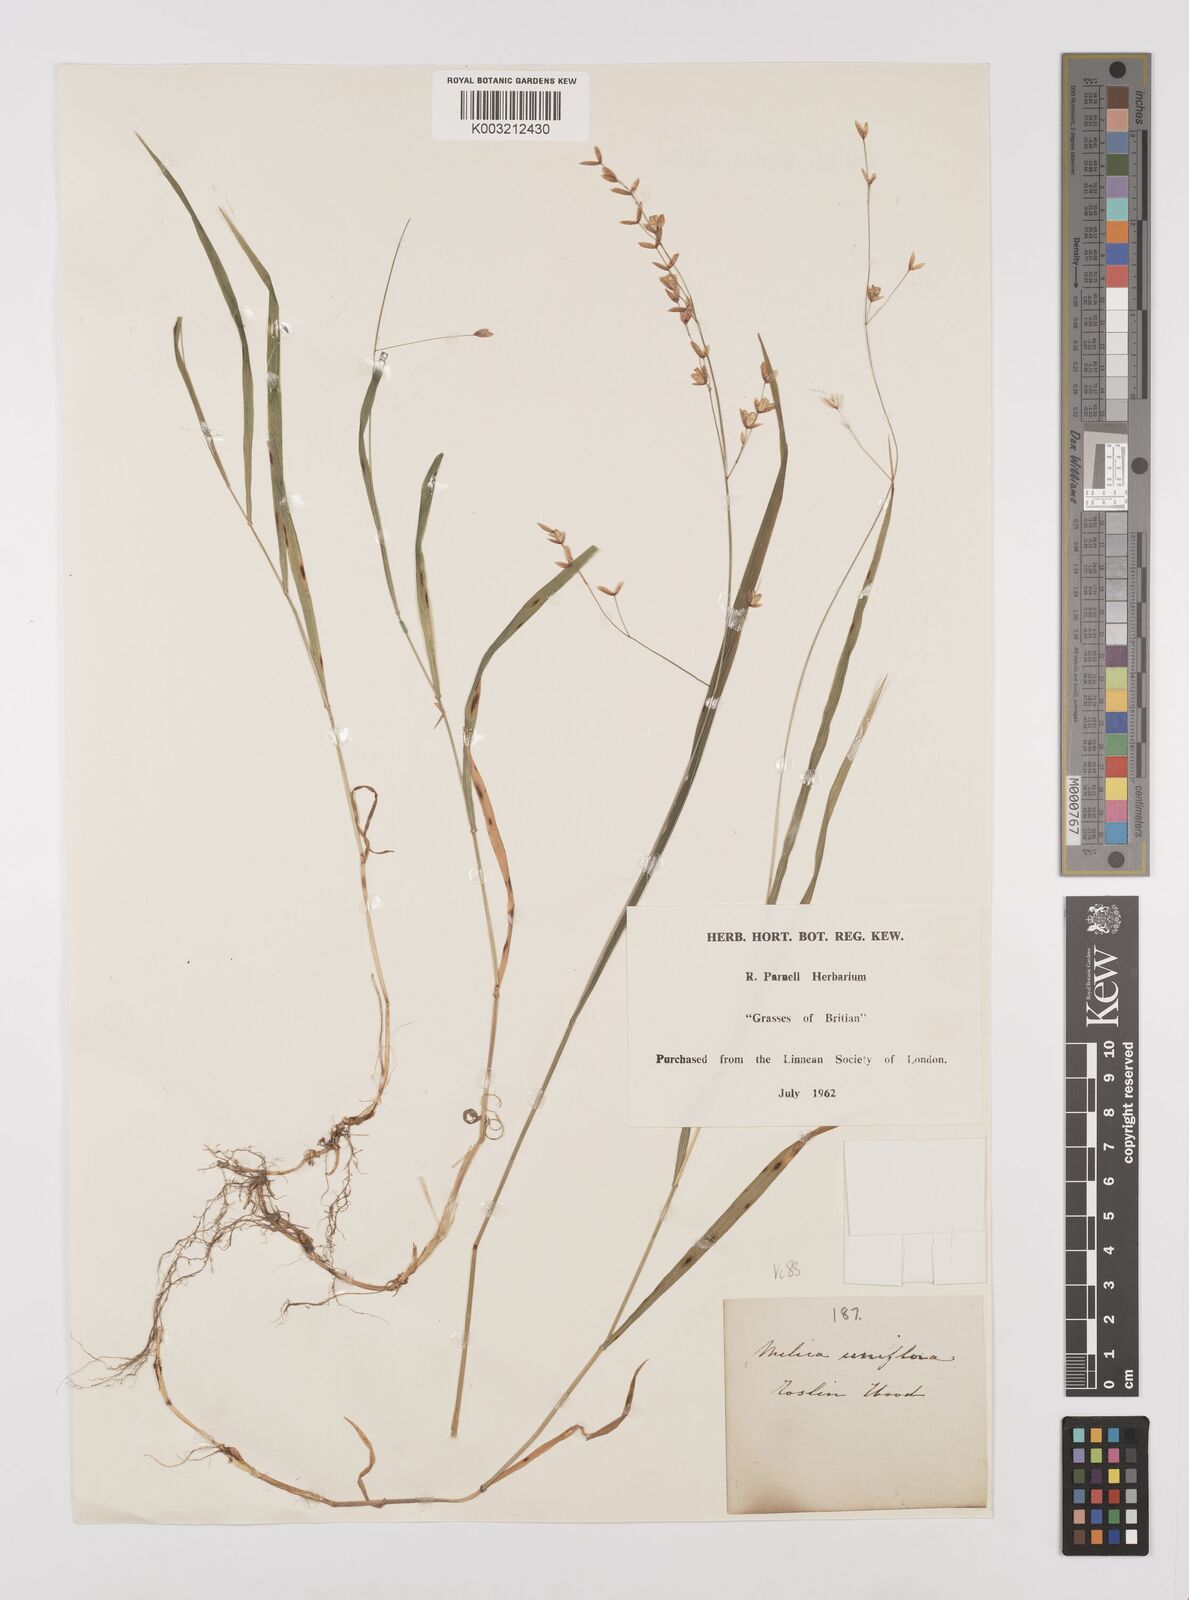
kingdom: Plantae
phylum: Tracheophyta
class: Liliopsida
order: Poales
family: Poaceae
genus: Melica
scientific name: Melica uniflora
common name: Wood melick
